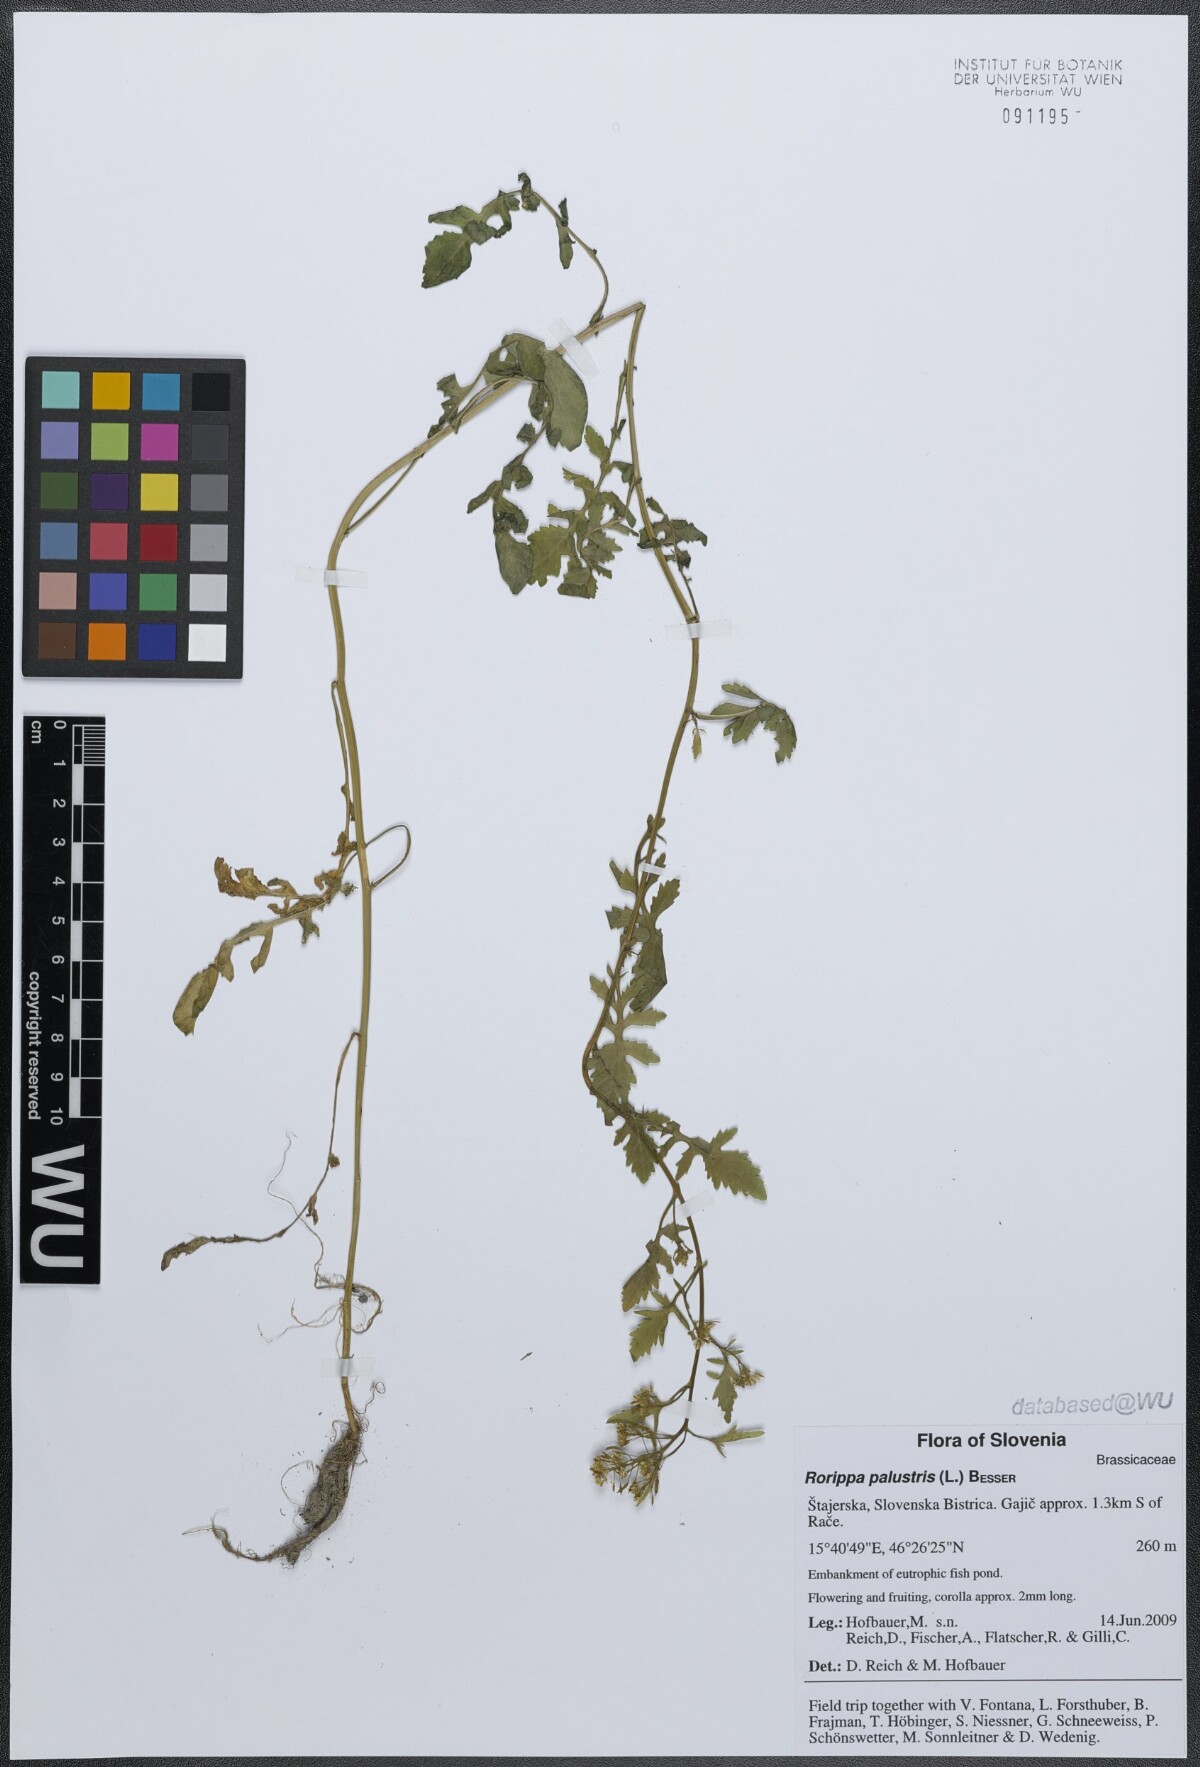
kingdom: Plantae
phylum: Tracheophyta
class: Magnoliopsida
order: Brassicales
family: Brassicaceae
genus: Rorippa
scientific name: Rorippa palustris
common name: Marsh yellow-cress
